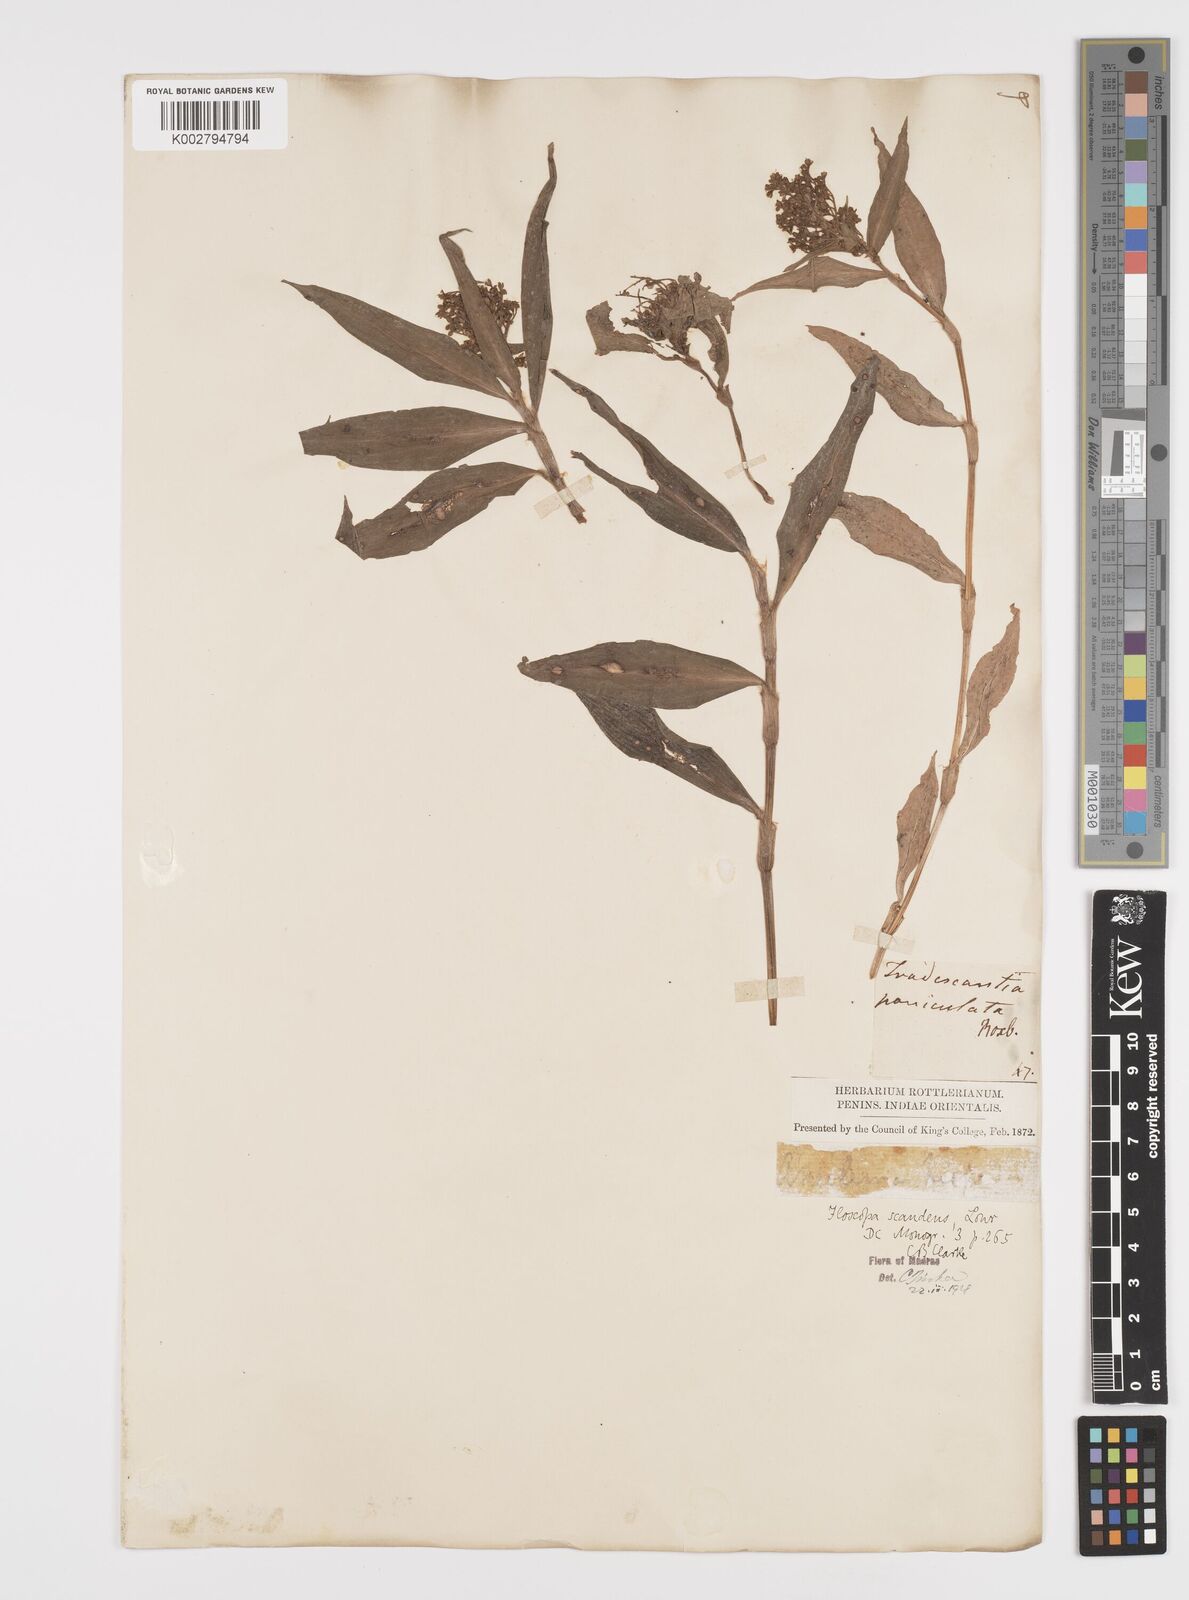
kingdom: Plantae
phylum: Tracheophyta
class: Liliopsida
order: Commelinales
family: Commelinaceae
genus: Floscopa
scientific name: Floscopa scandens
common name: Climbing flower cup
